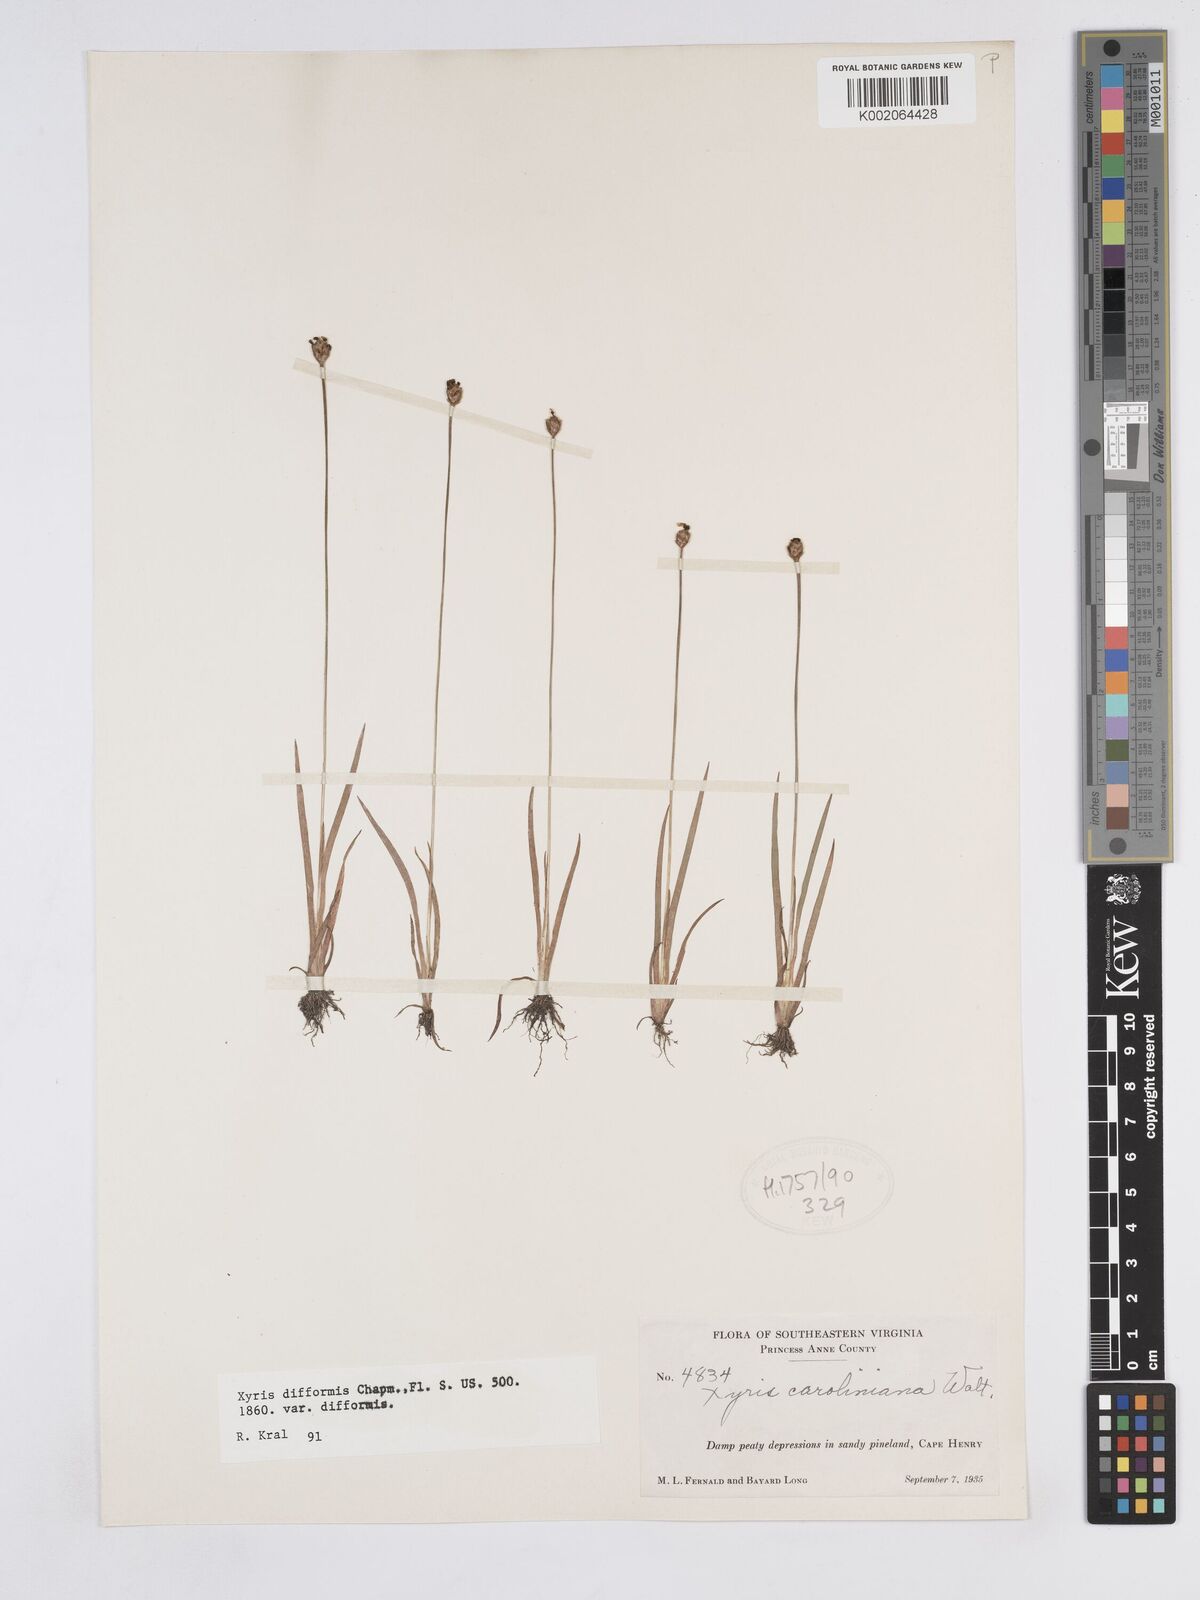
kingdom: Plantae
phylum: Tracheophyta
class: Liliopsida
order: Poales
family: Xyridaceae
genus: Xyris
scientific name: Xyris difformis
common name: Bog yellow-eyed-grass
